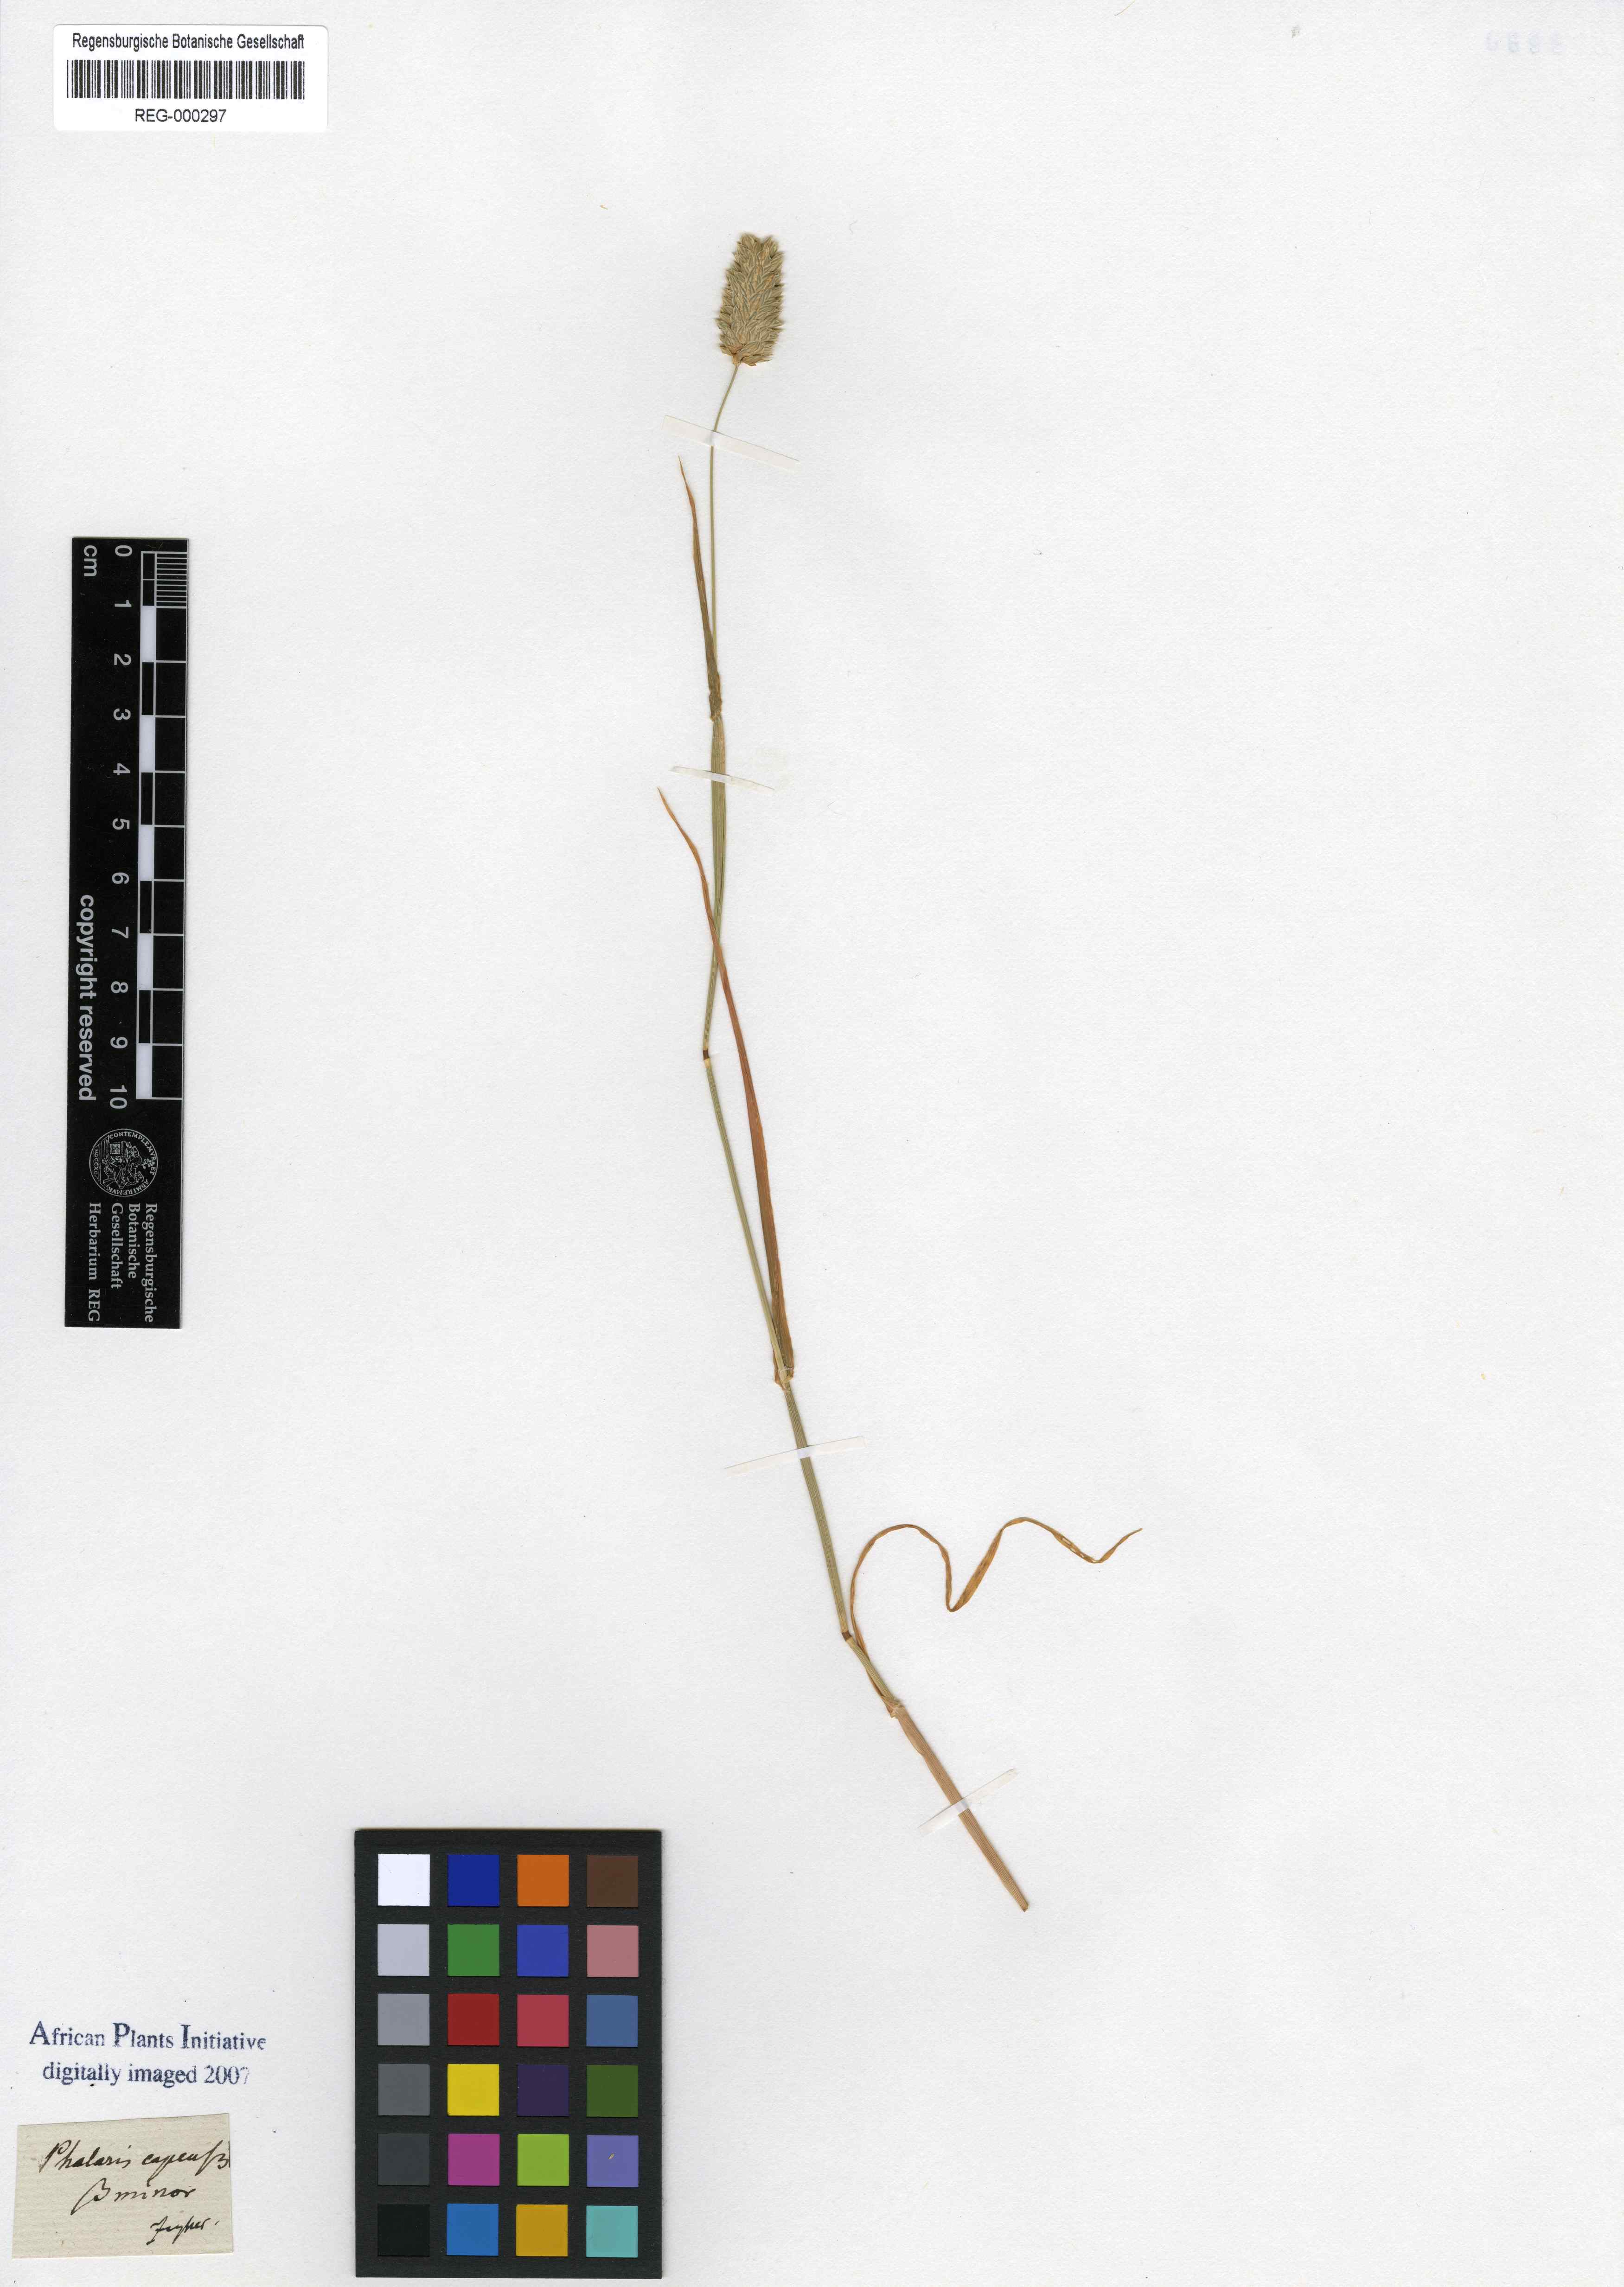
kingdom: Plantae
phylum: Tracheophyta
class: Liliopsida
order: Poales
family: Poaceae
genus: Phalaris
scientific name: Phalaris minor
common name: Littleseed canarygrass
